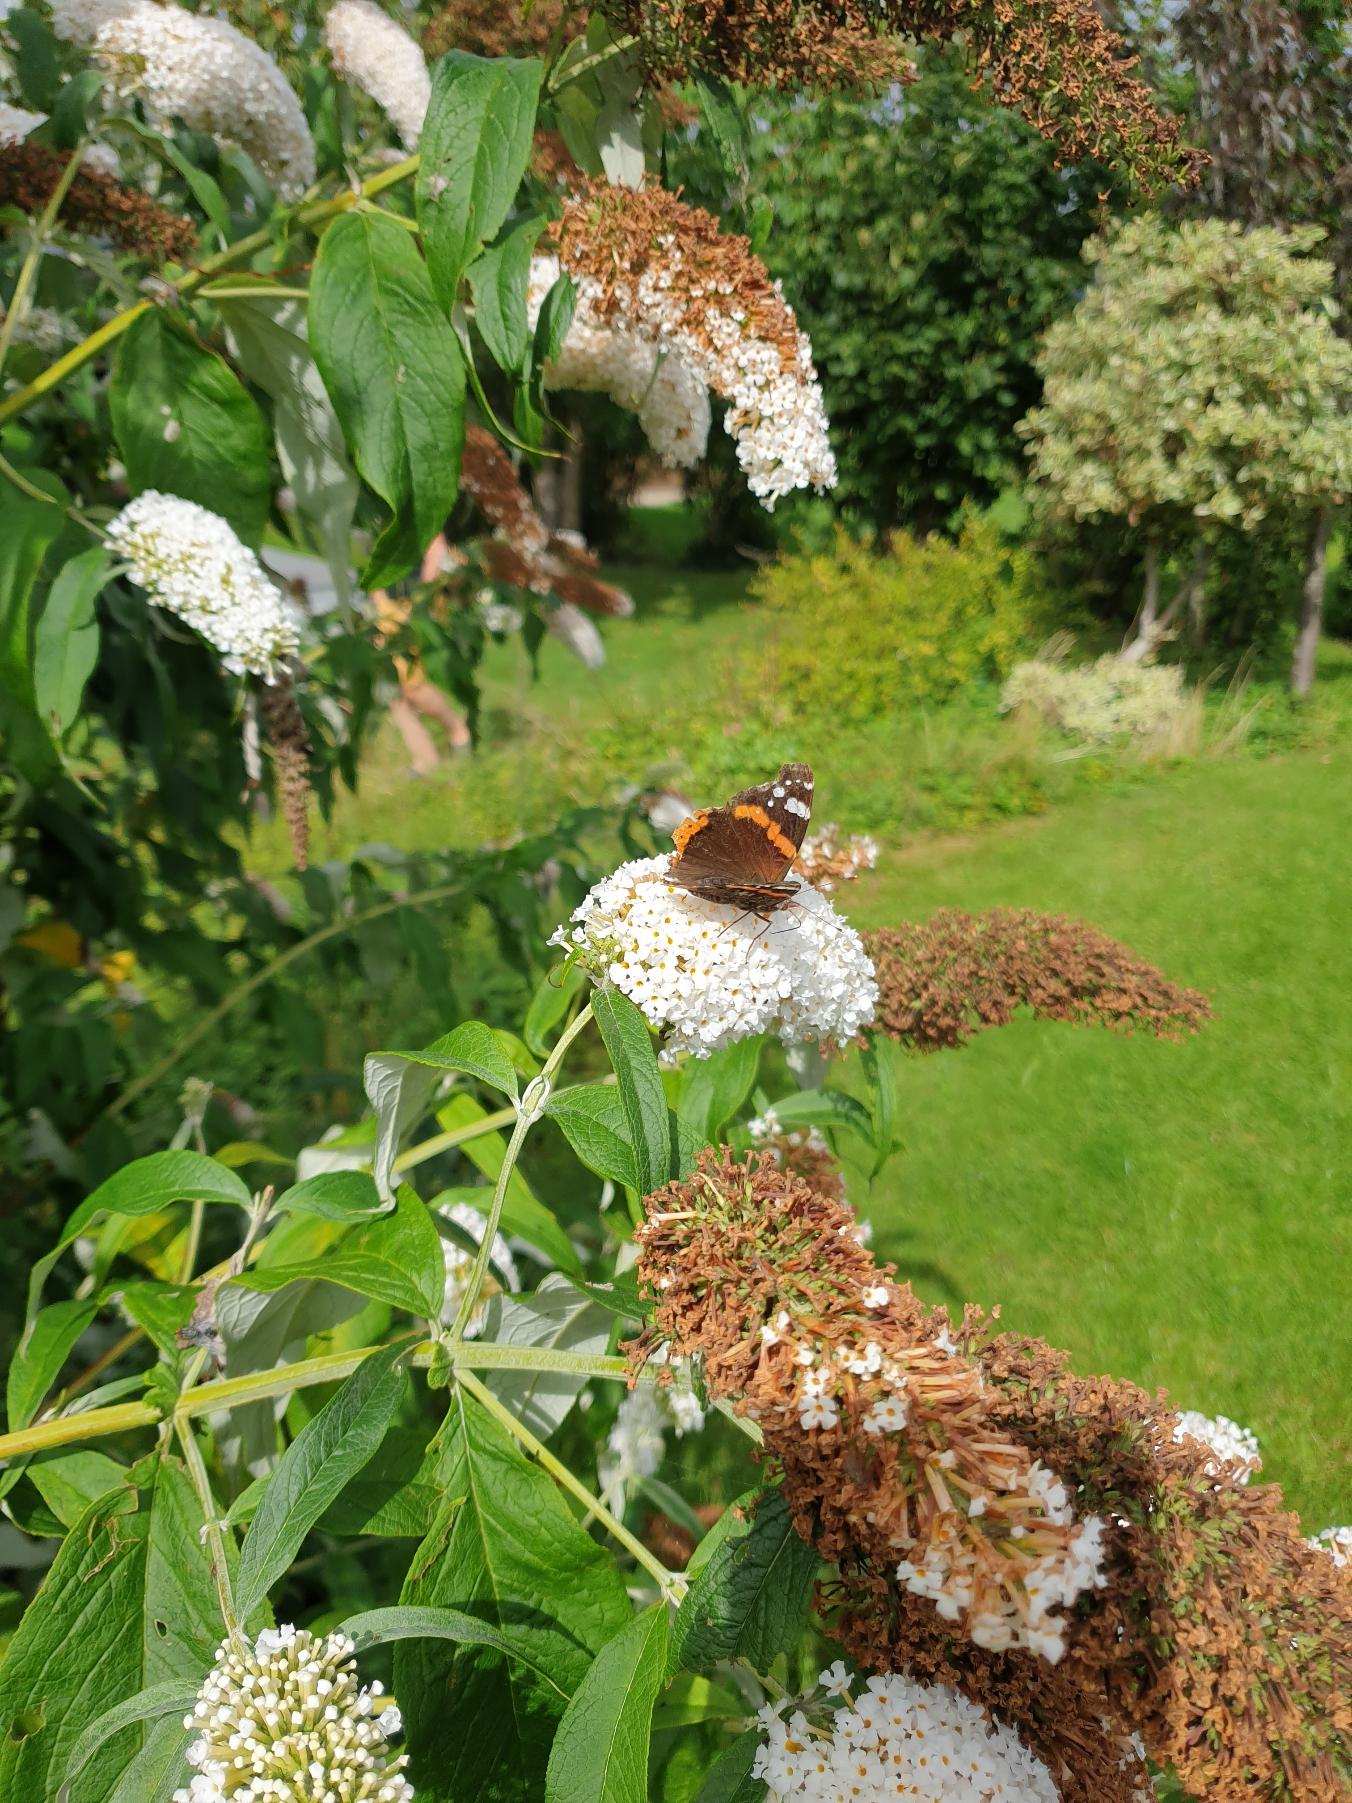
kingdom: Animalia
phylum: Arthropoda
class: Insecta
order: Lepidoptera
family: Nymphalidae
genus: Vanessa
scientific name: Vanessa atalanta
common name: Admiral
